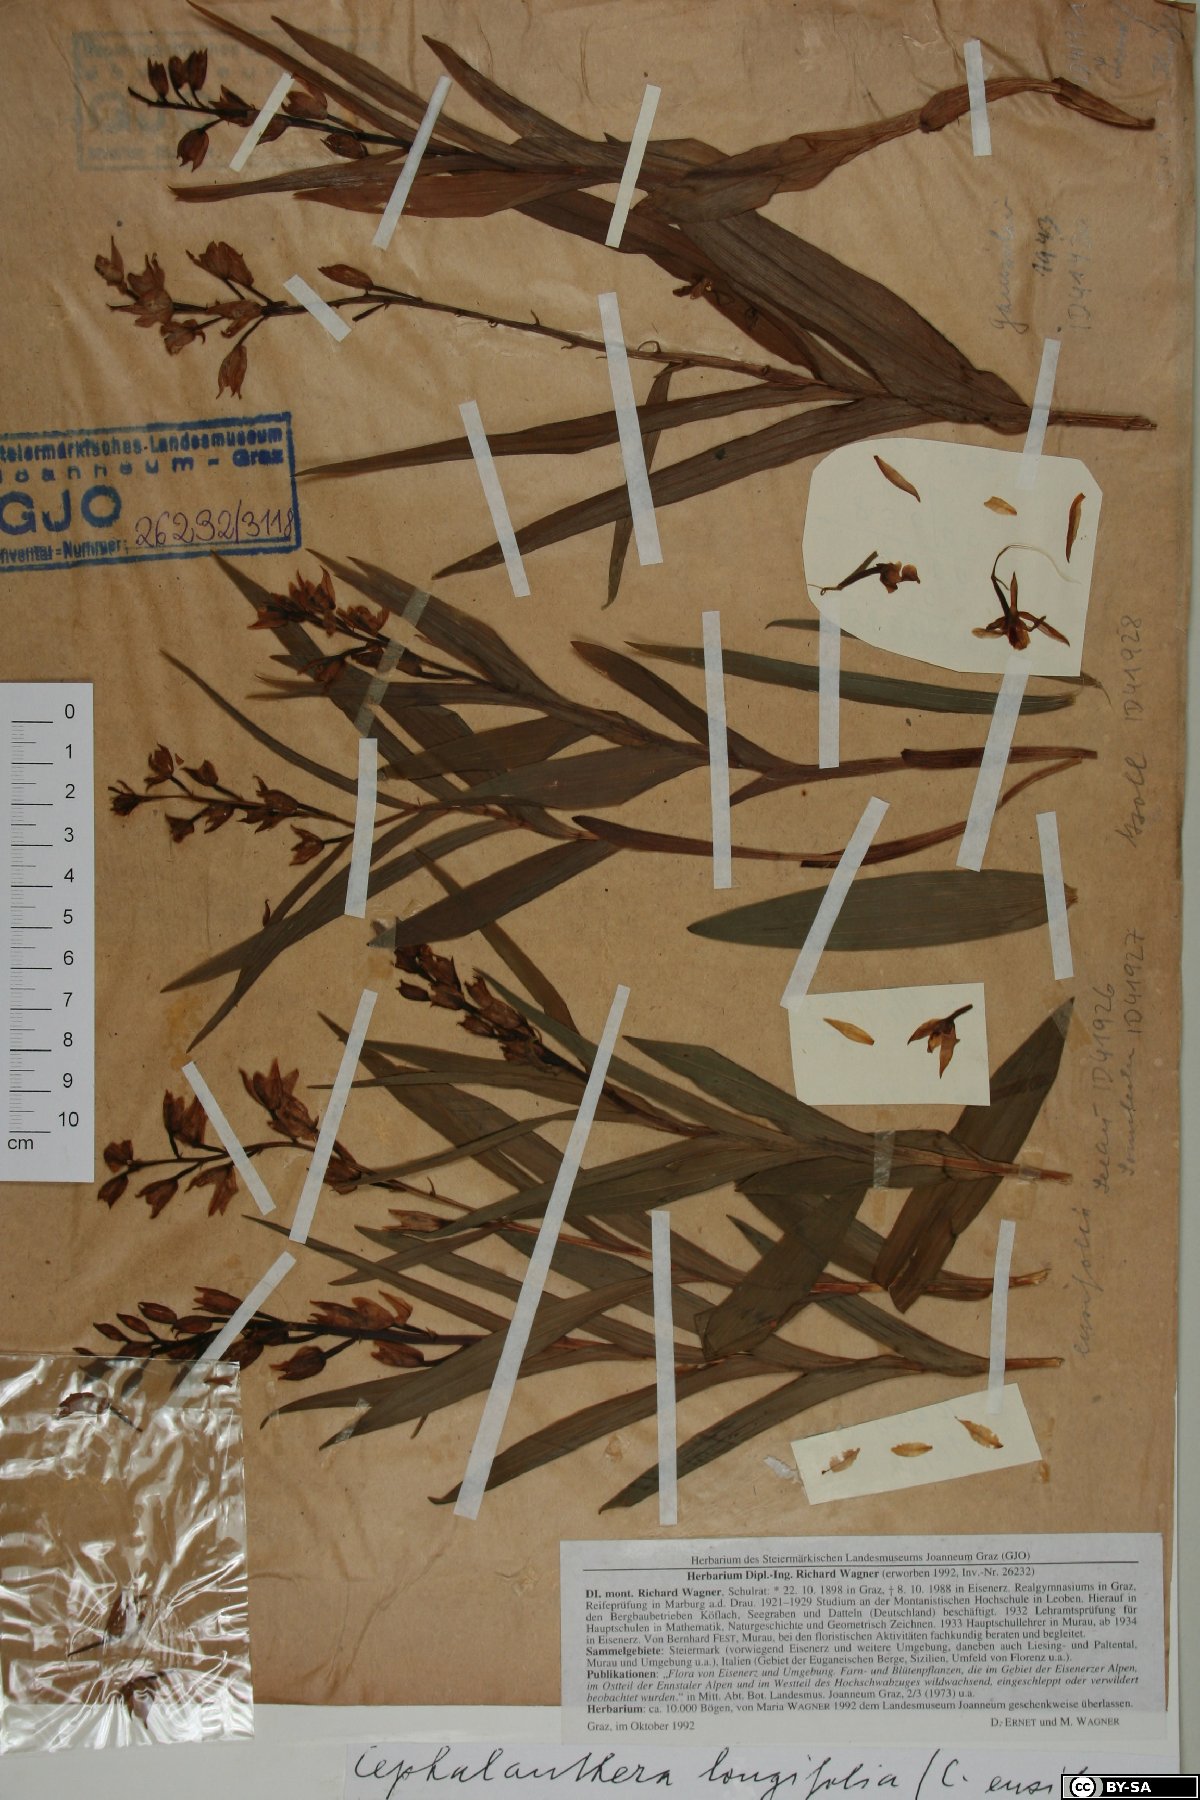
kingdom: Plantae
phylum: Tracheophyta
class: Liliopsida
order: Asparagales
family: Orchidaceae
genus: Cephalanthera
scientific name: Cephalanthera longifolia
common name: Narrow-leaved helleborine
